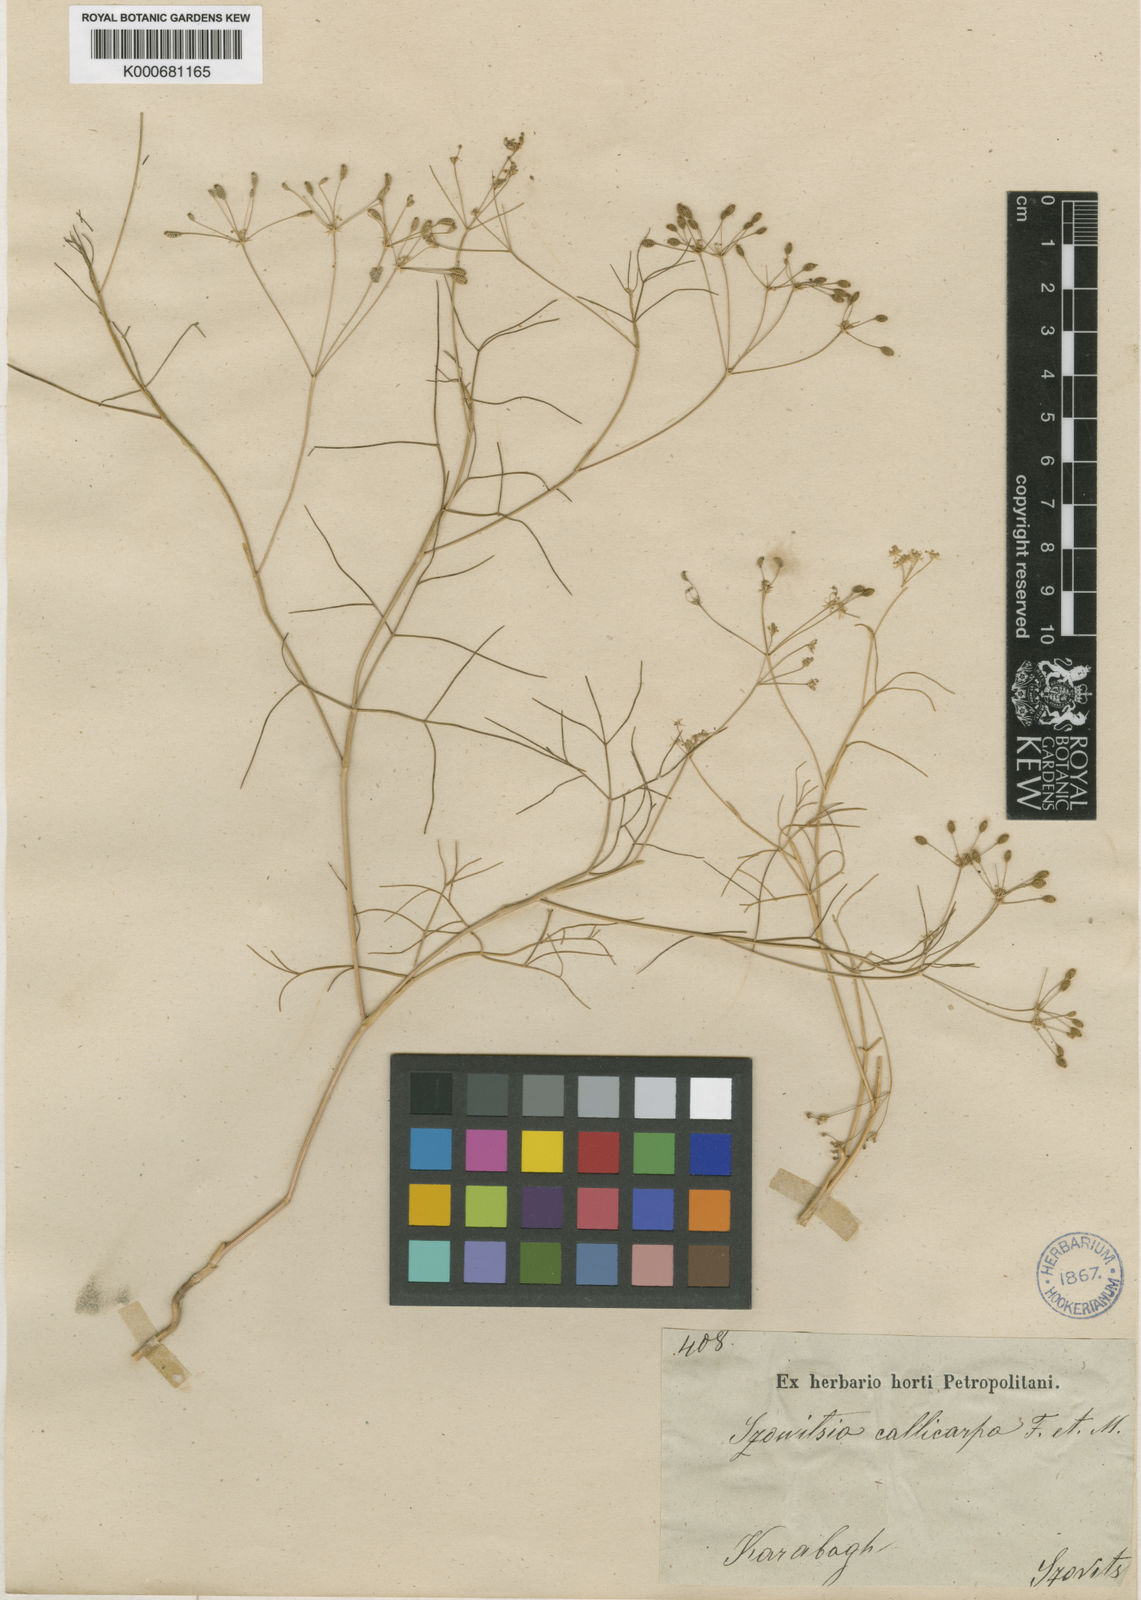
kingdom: Plantae
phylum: Tracheophyta
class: Magnoliopsida
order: Apiales
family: Apiaceae
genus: Szovitsia
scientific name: Szovitsia callicarpa
